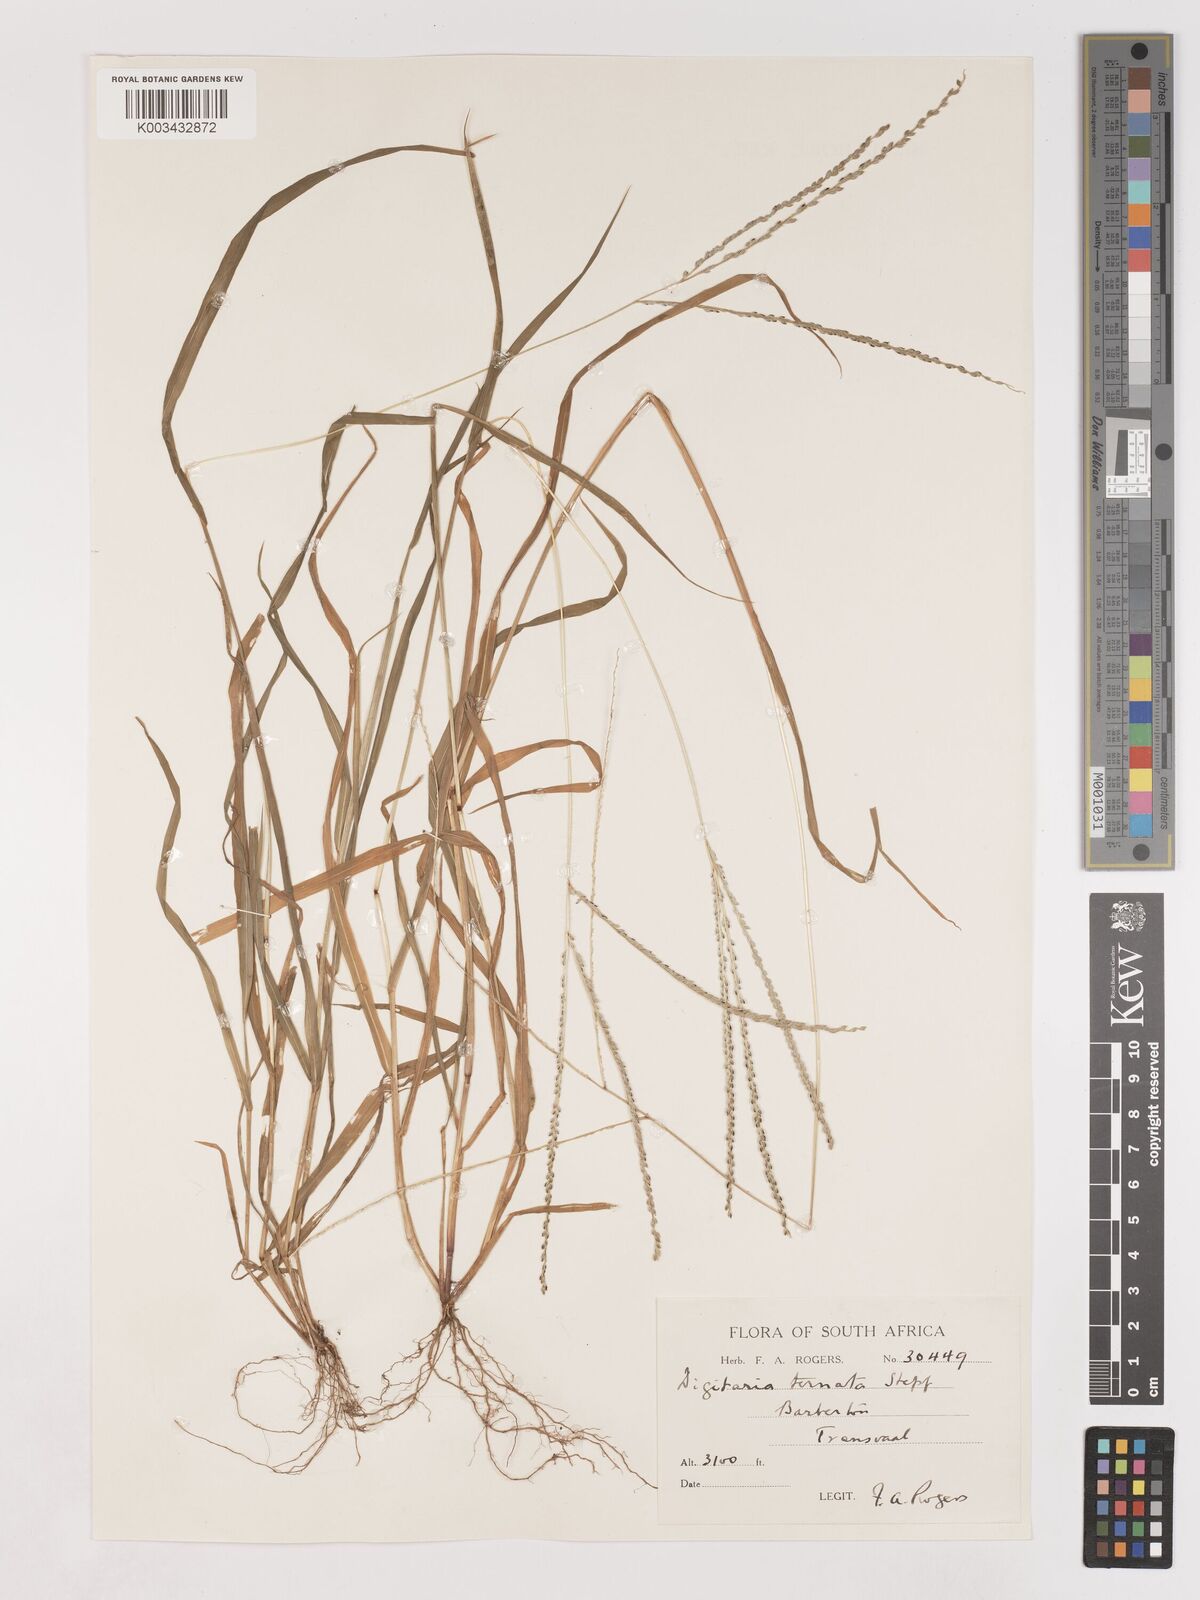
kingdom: Plantae
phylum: Tracheophyta
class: Liliopsida
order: Poales
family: Poaceae
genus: Digitaria
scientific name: Digitaria ternata
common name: Blackseed crabgrass
